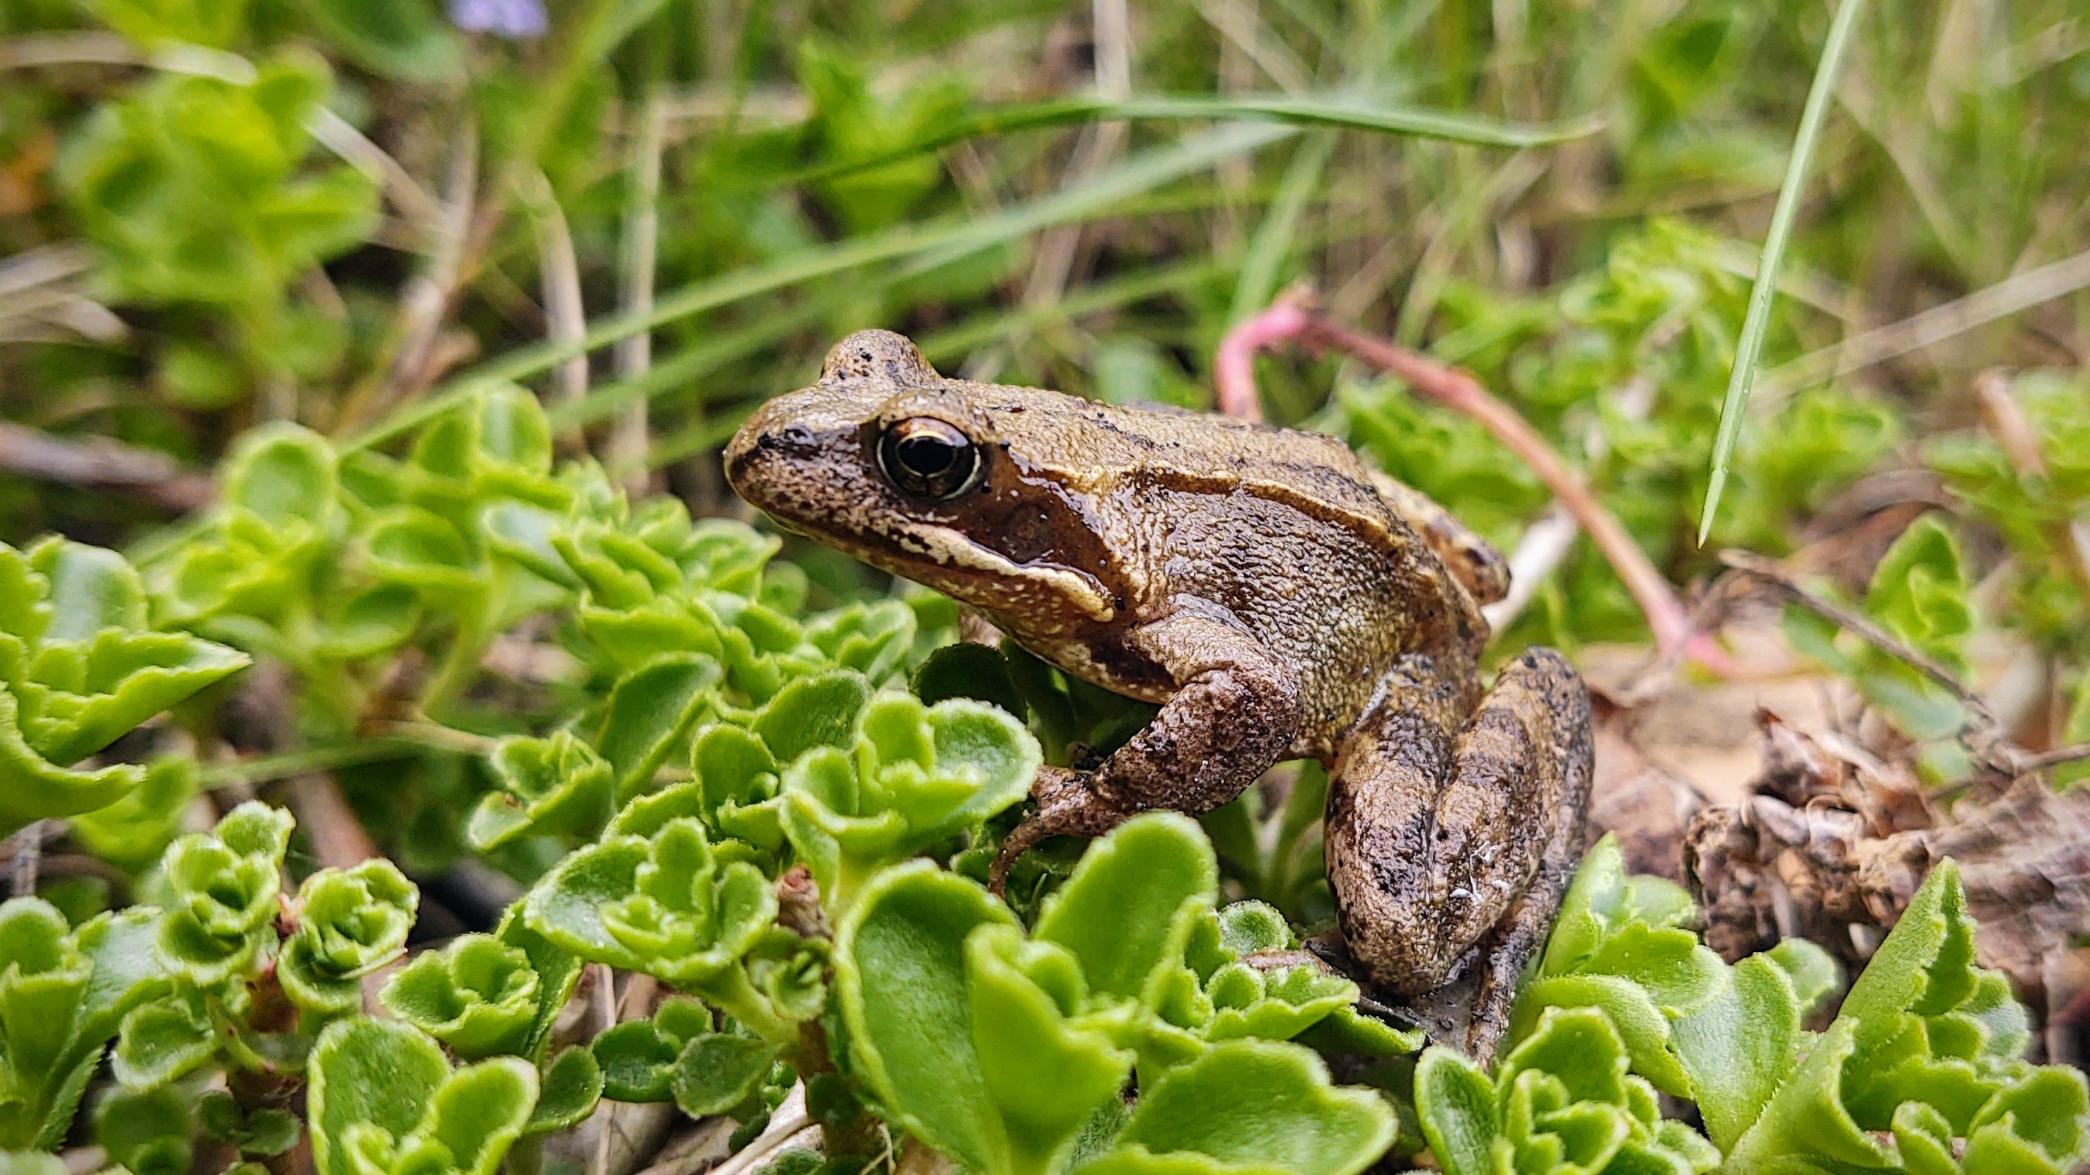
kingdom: Animalia
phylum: Chordata
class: Amphibia
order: Anura
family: Ranidae
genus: Rana
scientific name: Rana temporaria
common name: Butsnudet frø
